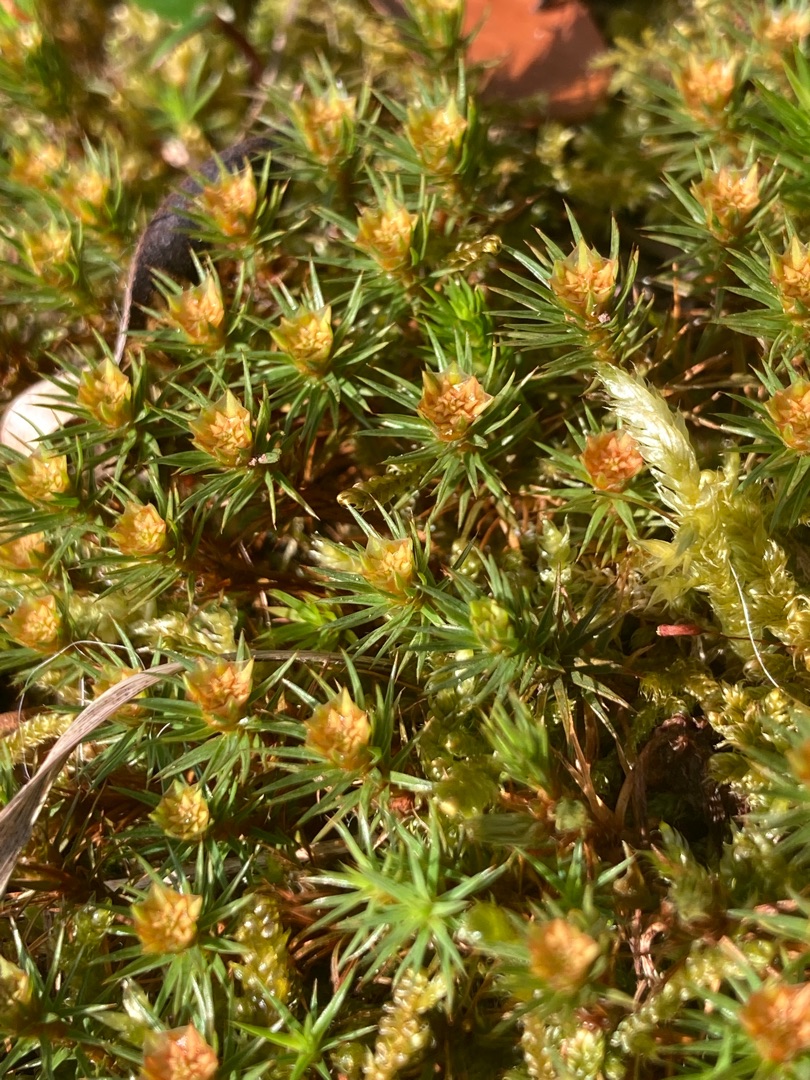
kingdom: Plantae
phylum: Bryophyta
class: Polytrichopsida
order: Polytrichales
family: Polytrichaceae
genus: Polytrichum
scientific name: Polytrichum juniperinum
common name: Ene-jomfruhår
